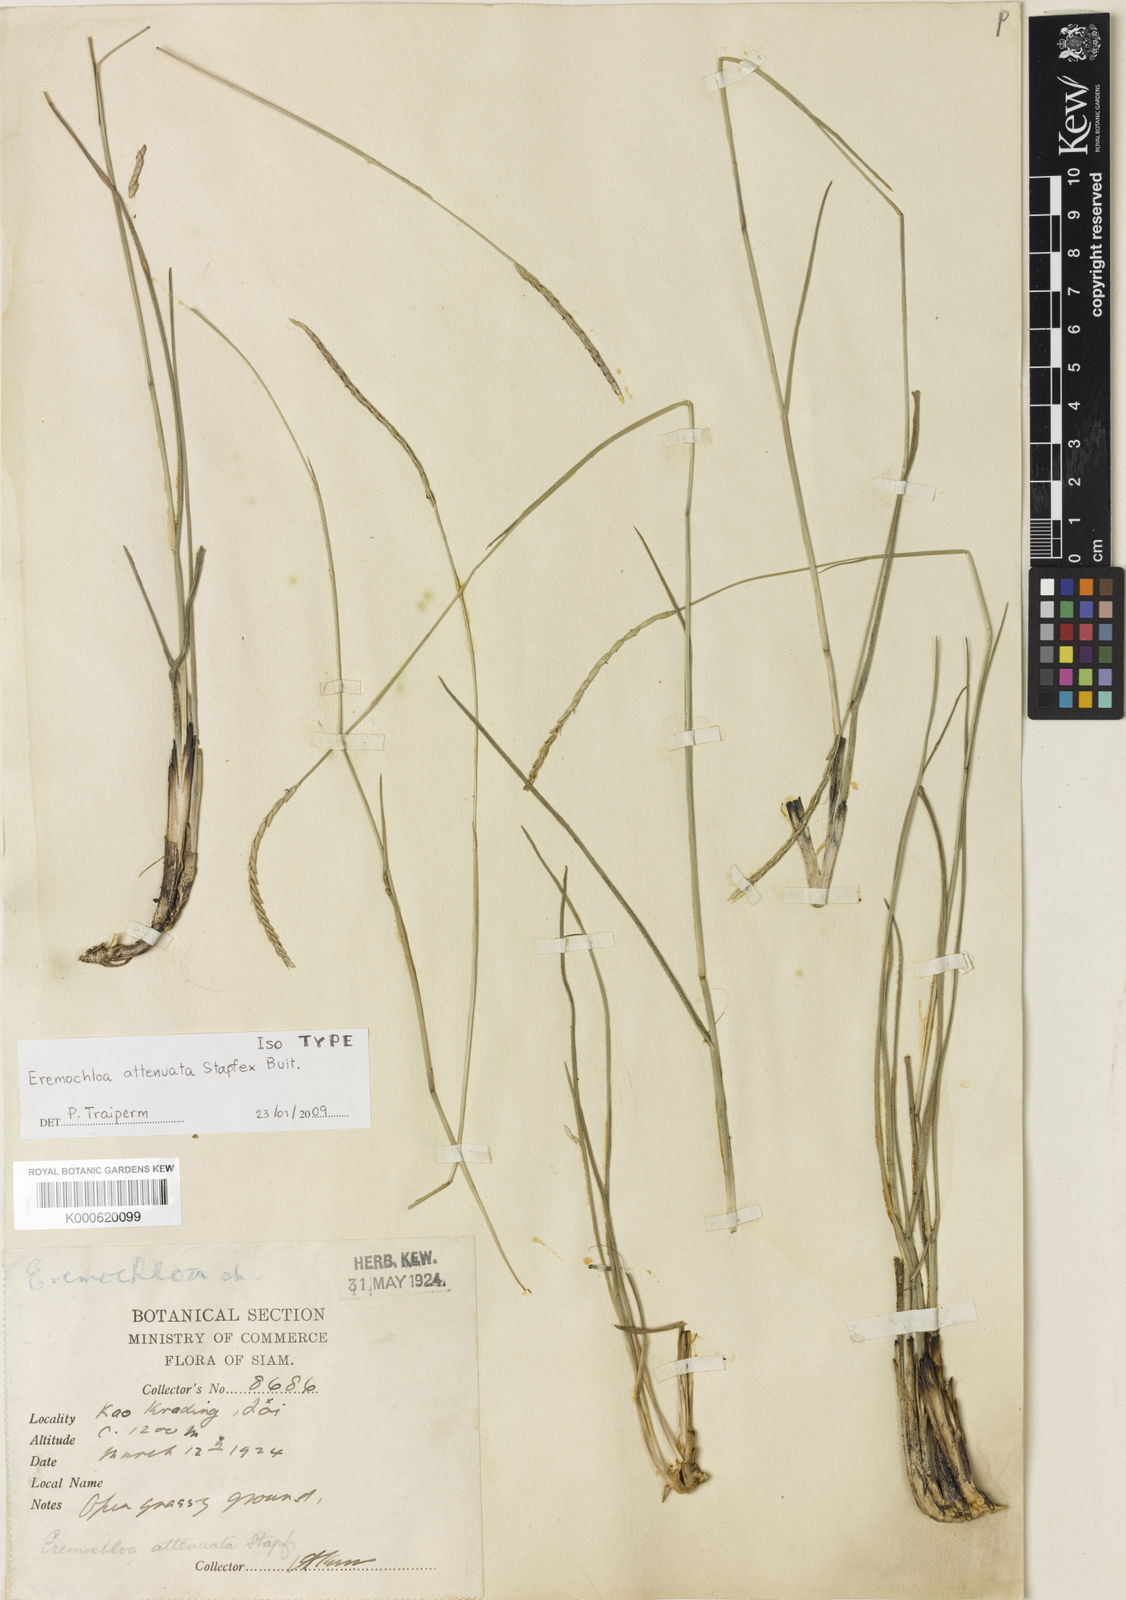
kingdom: Plantae
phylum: Tracheophyta
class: Liliopsida
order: Poales
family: Poaceae
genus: Eremochloa
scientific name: Eremochloa attenuata
